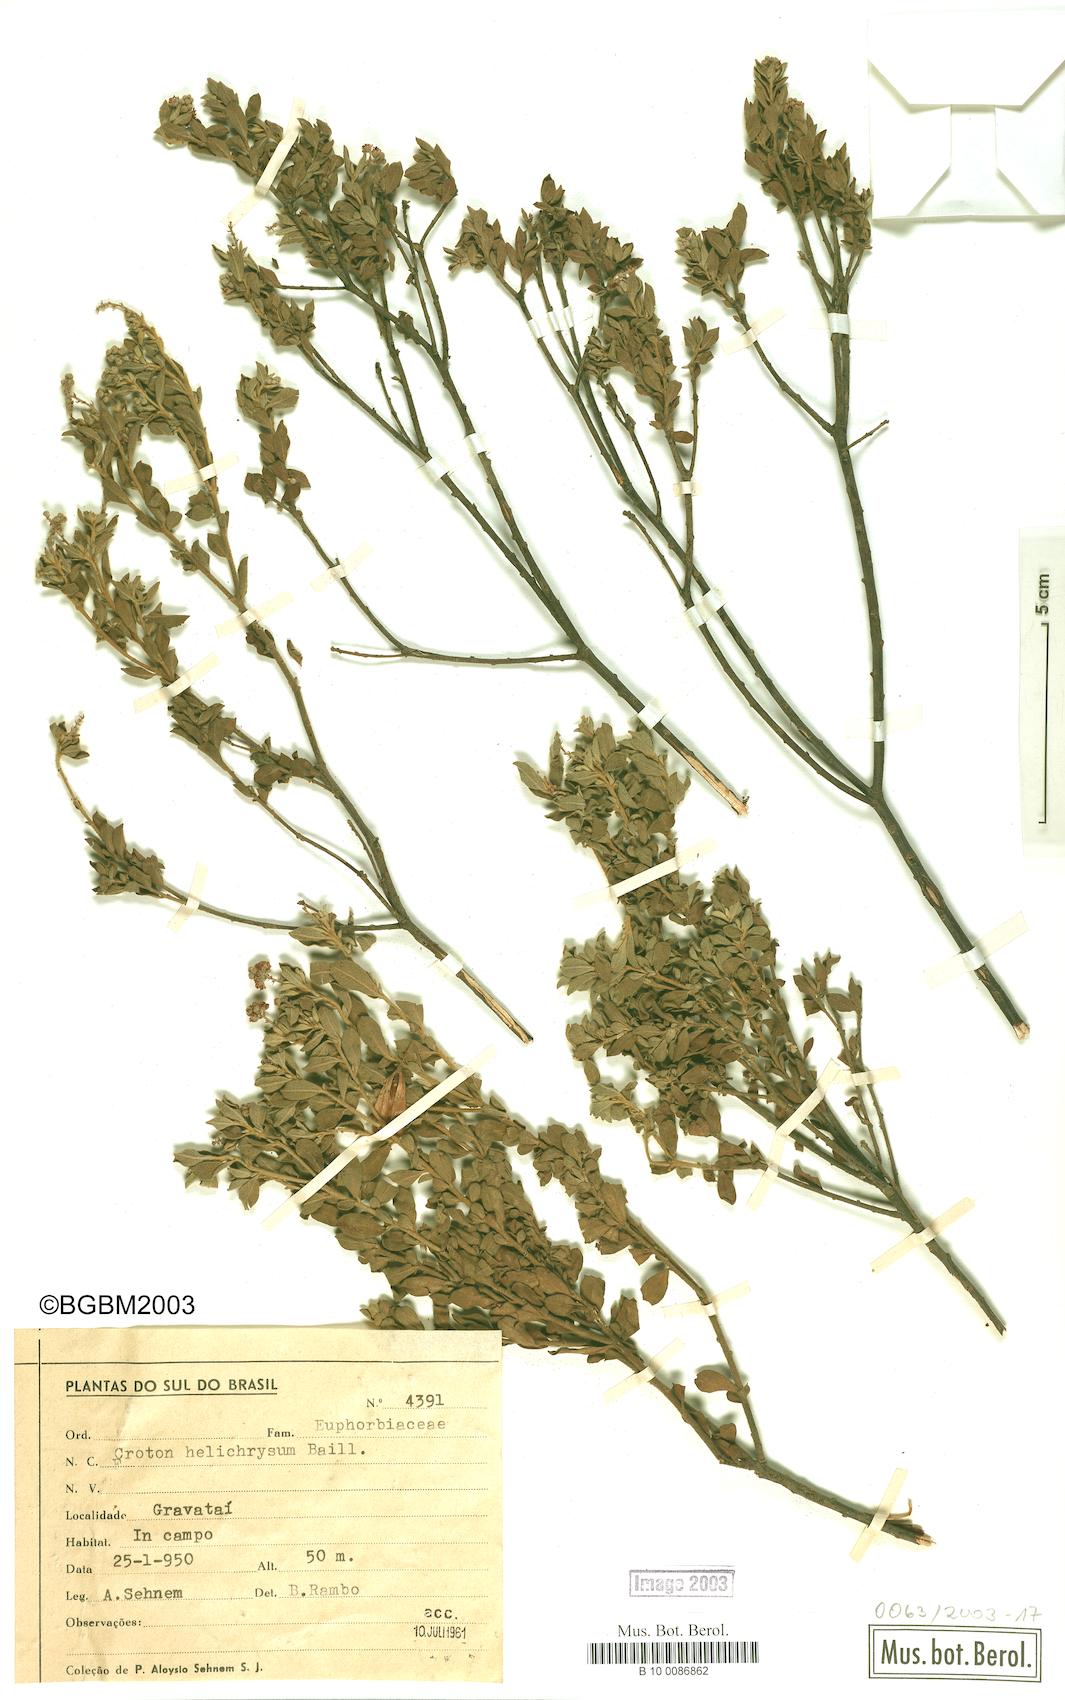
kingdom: Plantae
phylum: Tracheophyta
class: Magnoliopsida
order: Malpighiales
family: Euphorbiaceae
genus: Croton
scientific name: Croton helichrysum
